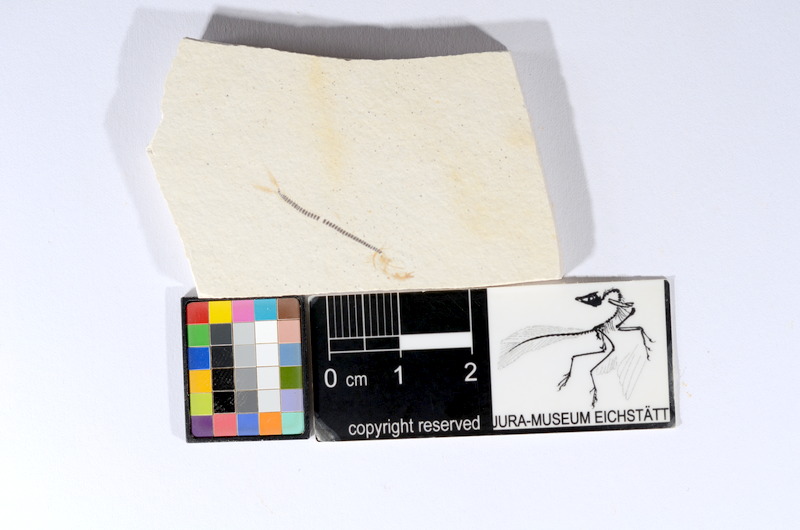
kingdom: Animalia
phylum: Chordata
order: Salmoniformes
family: Orthogonikleithridae
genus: Orthogonikleithrus
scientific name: Orthogonikleithrus hoelli
